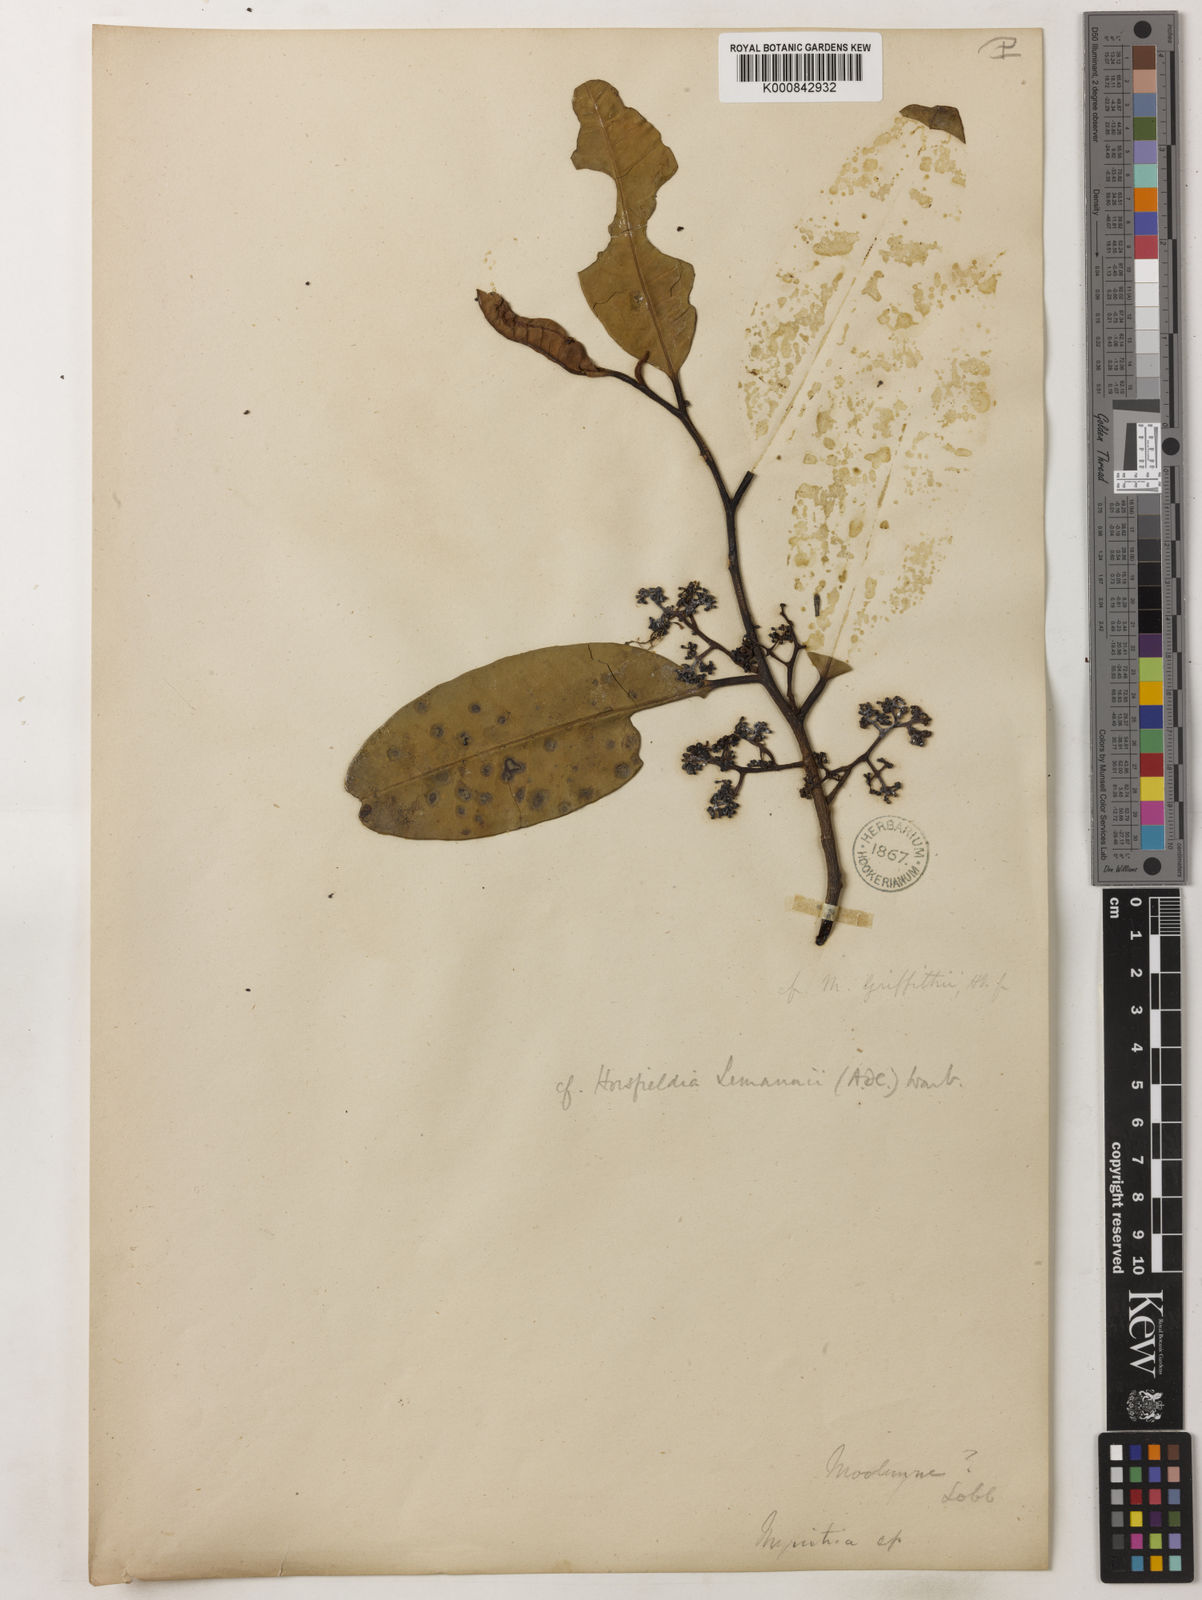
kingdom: Plantae
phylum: Tracheophyta
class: Magnoliopsida
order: Magnoliales
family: Myristicaceae
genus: Horsfieldia
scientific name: Horsfieldia polyspherula
